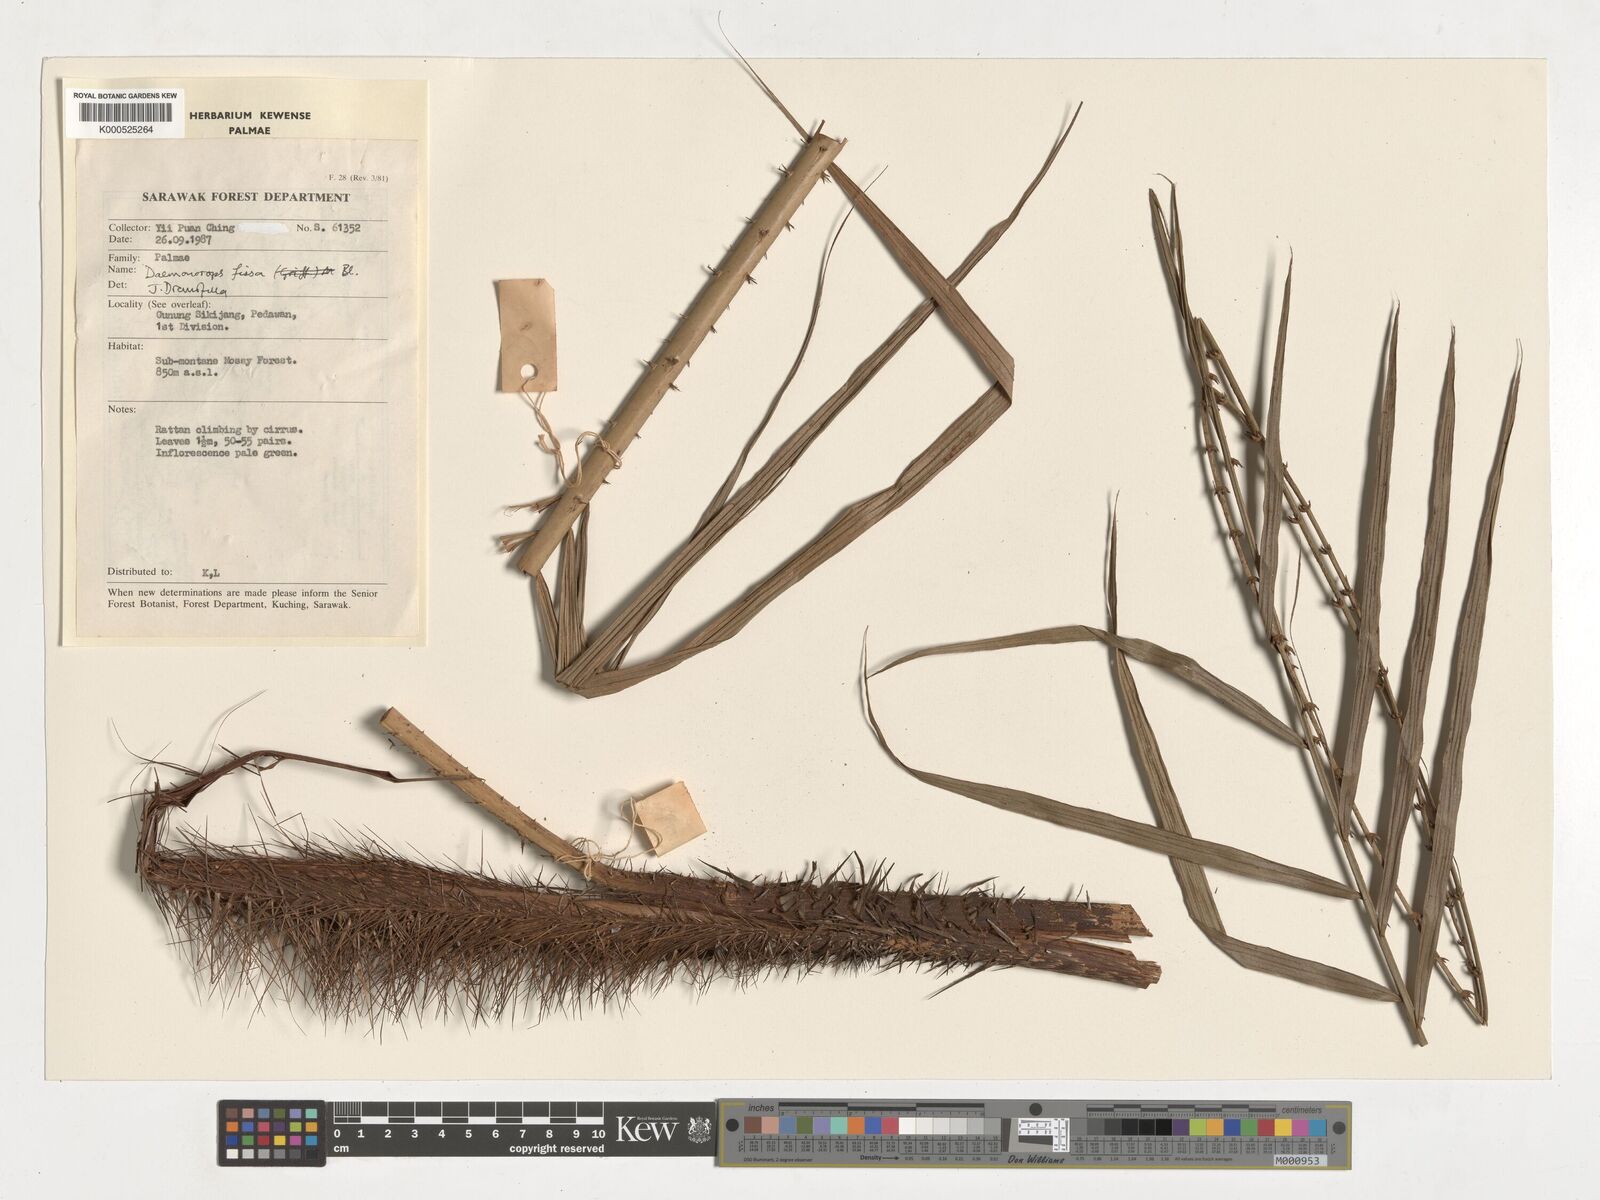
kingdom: Plantae
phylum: Tracheophyta
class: Liliopsida
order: Arecales
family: Arecaceae
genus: Calamus
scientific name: Calamus melanochaetes
